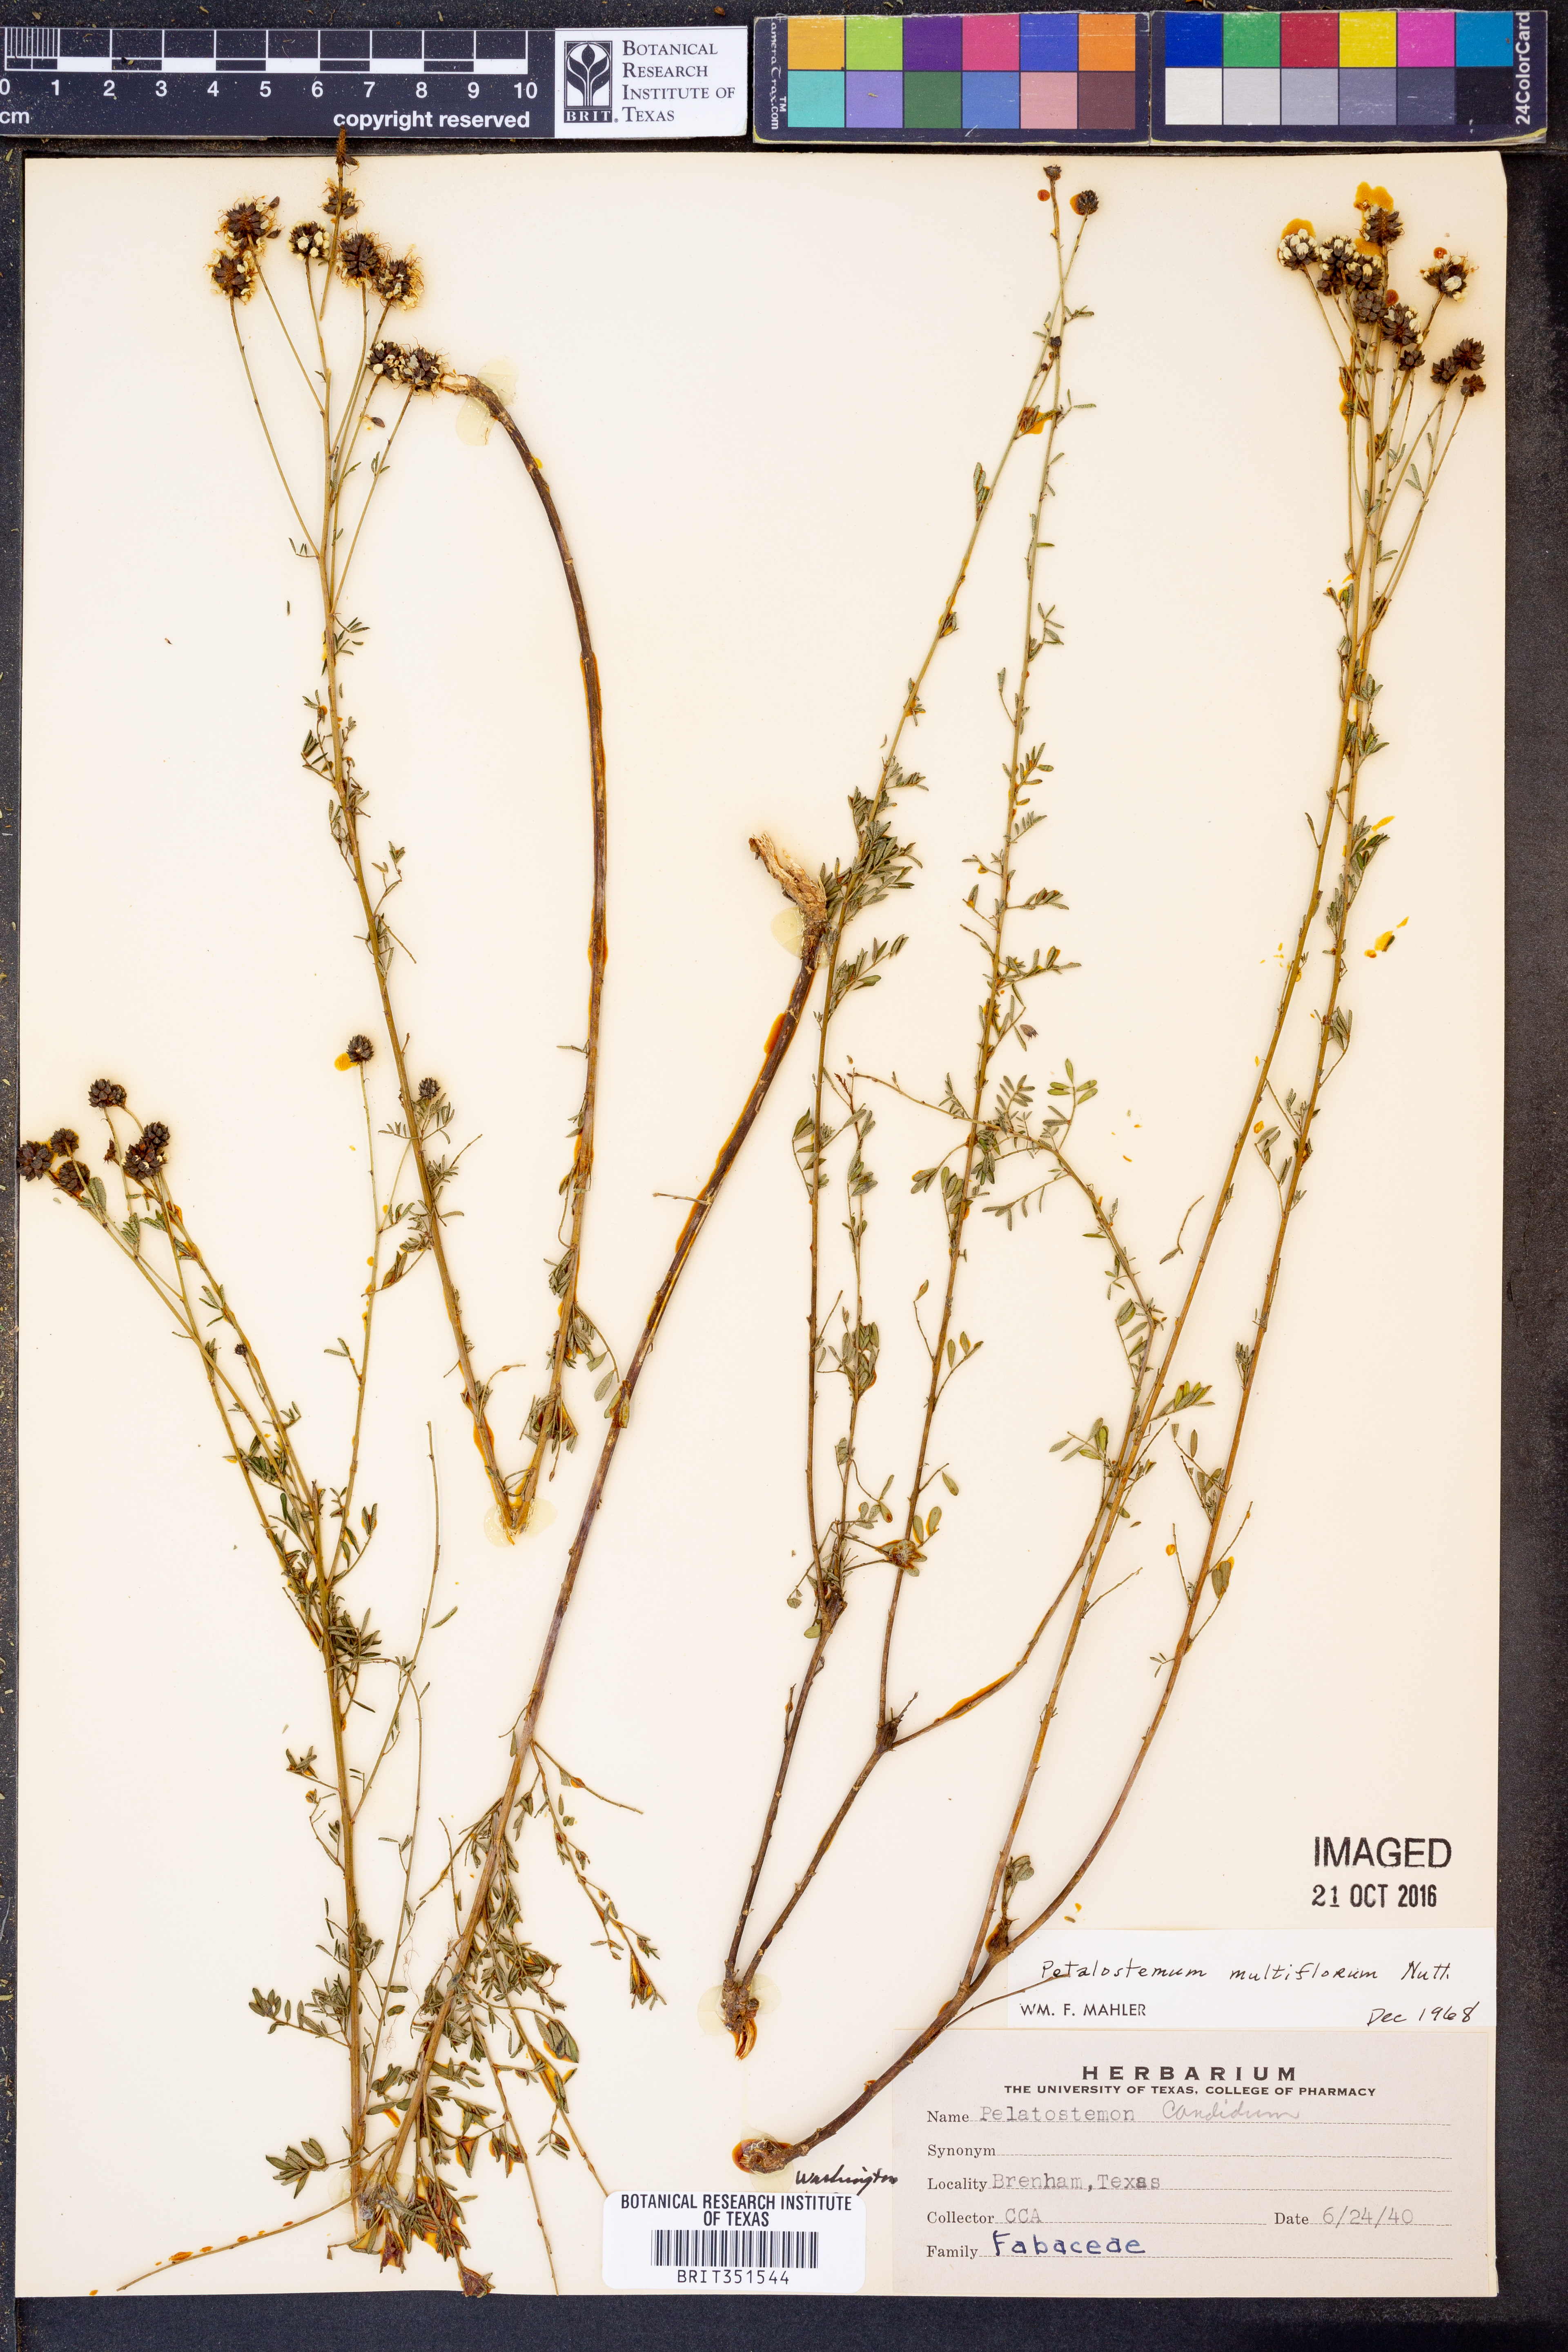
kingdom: Plantae
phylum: Tracheophyta
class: Magnoliopsida
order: Fabales
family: Fabaceae
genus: Dalea
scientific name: Dalea multiflora
